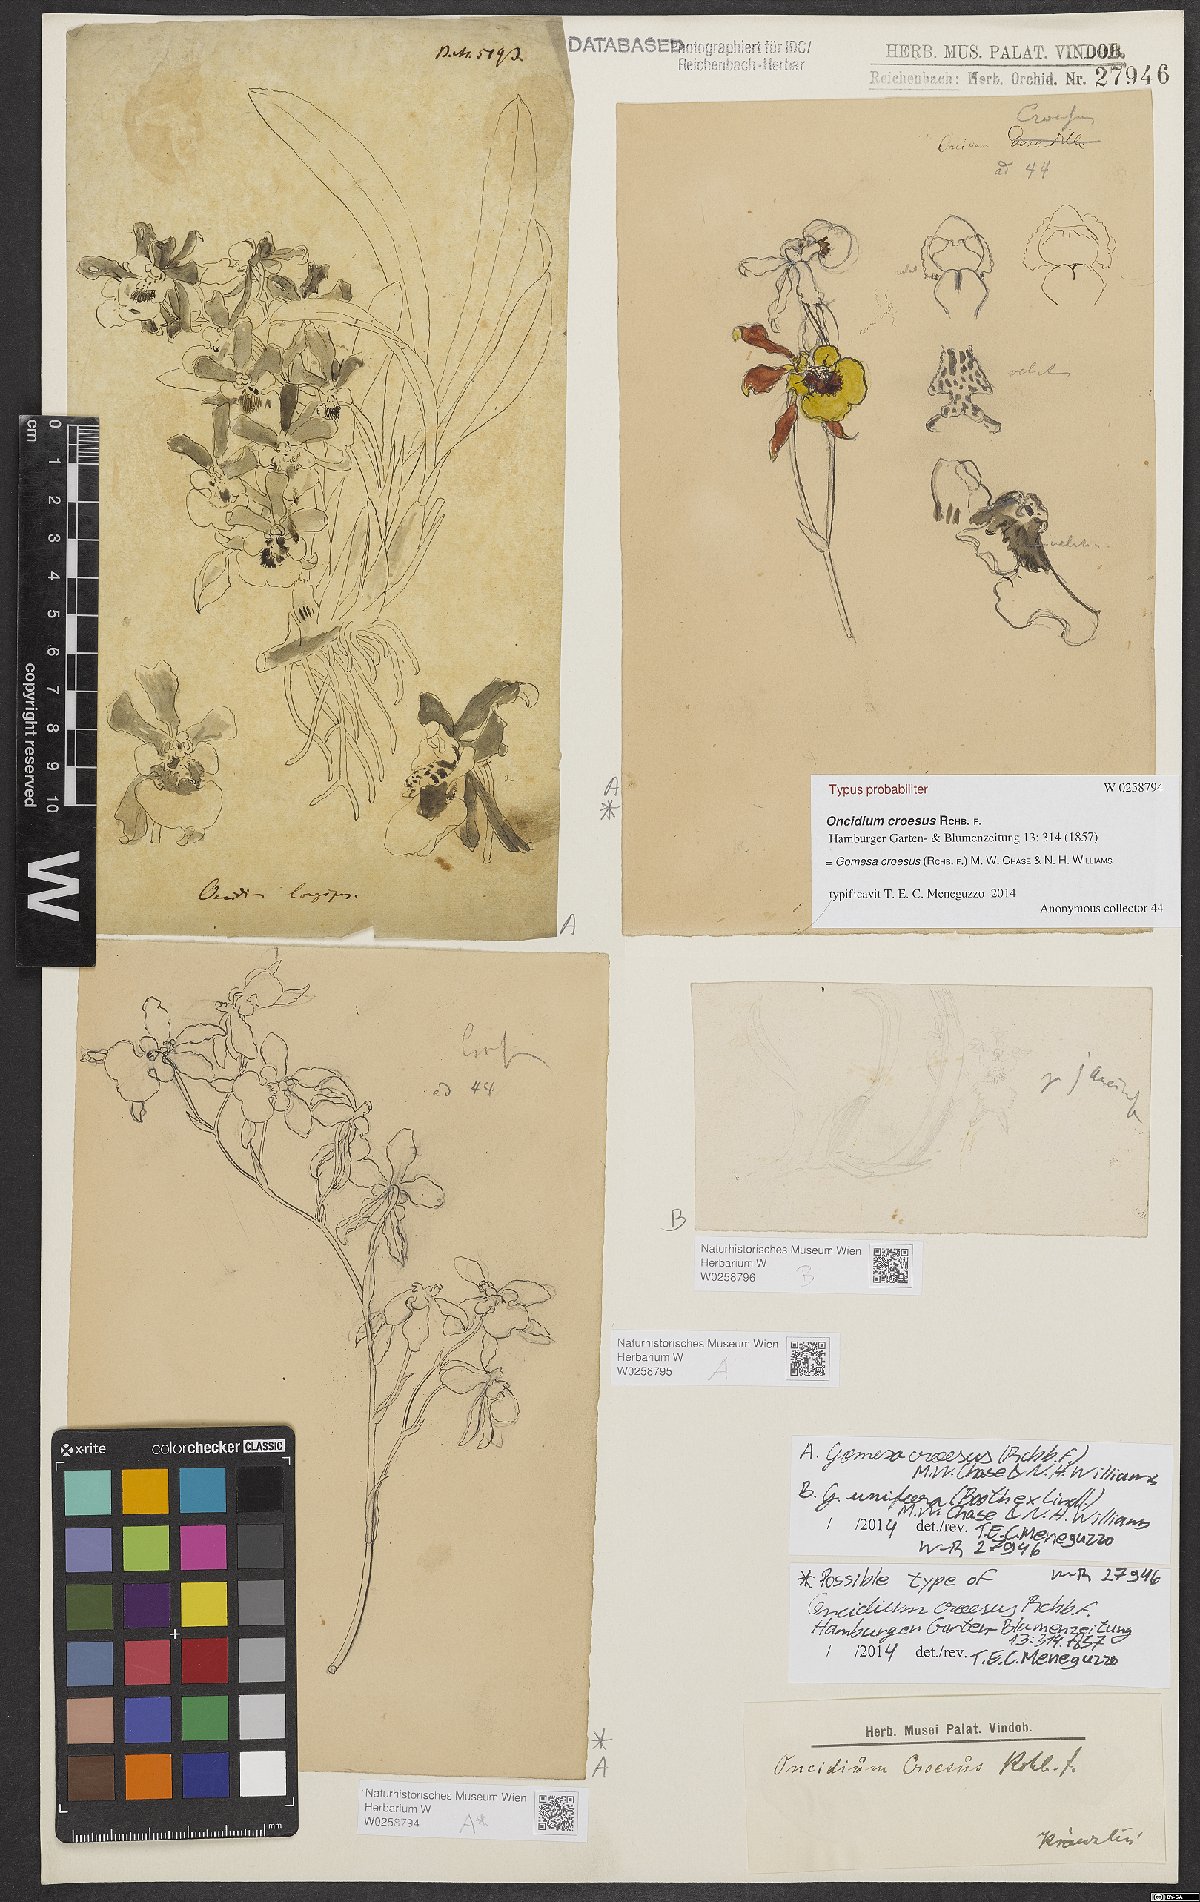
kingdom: Plantae
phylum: Tracheophyta
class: Liliopsida
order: Asparagales
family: Orchidaceae
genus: Gomesa
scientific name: Gomesa croesus
